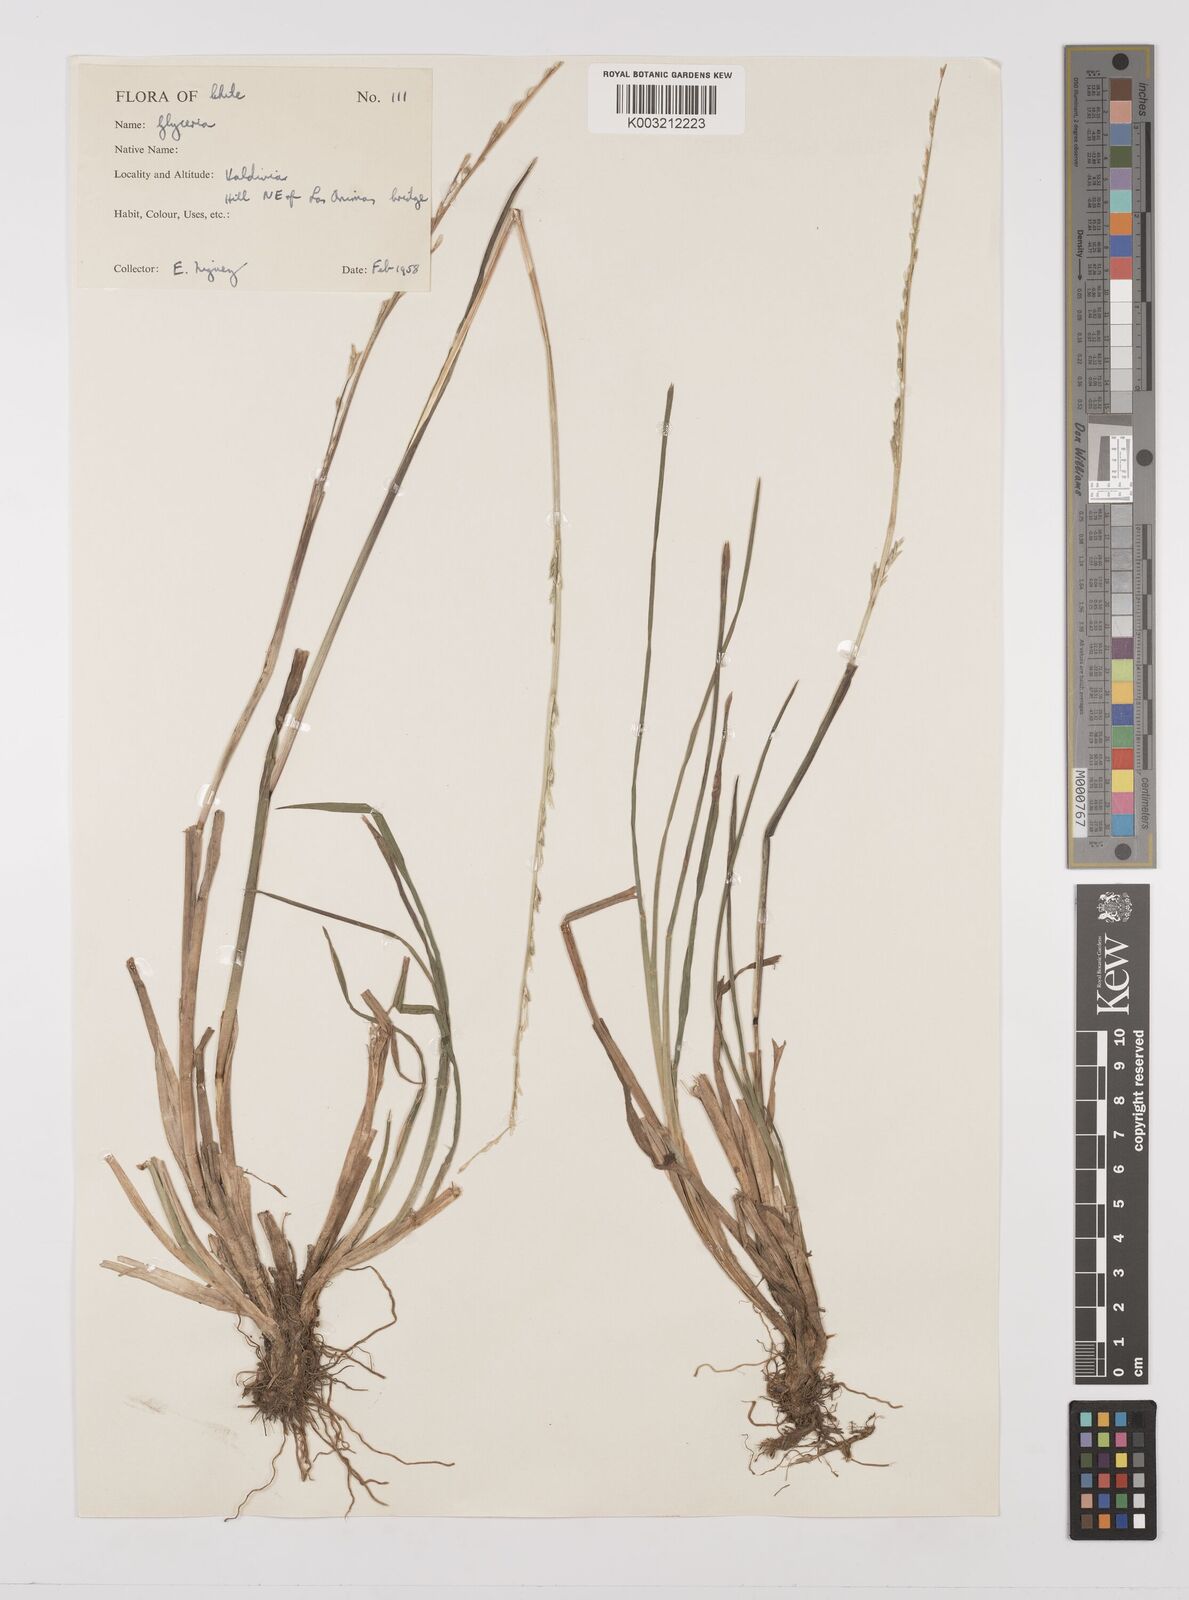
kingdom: Plantae
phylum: Tracheophyta
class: Liliopsida
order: Poales
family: Poaceae
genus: Glyceria
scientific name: Glyceria multiflora
